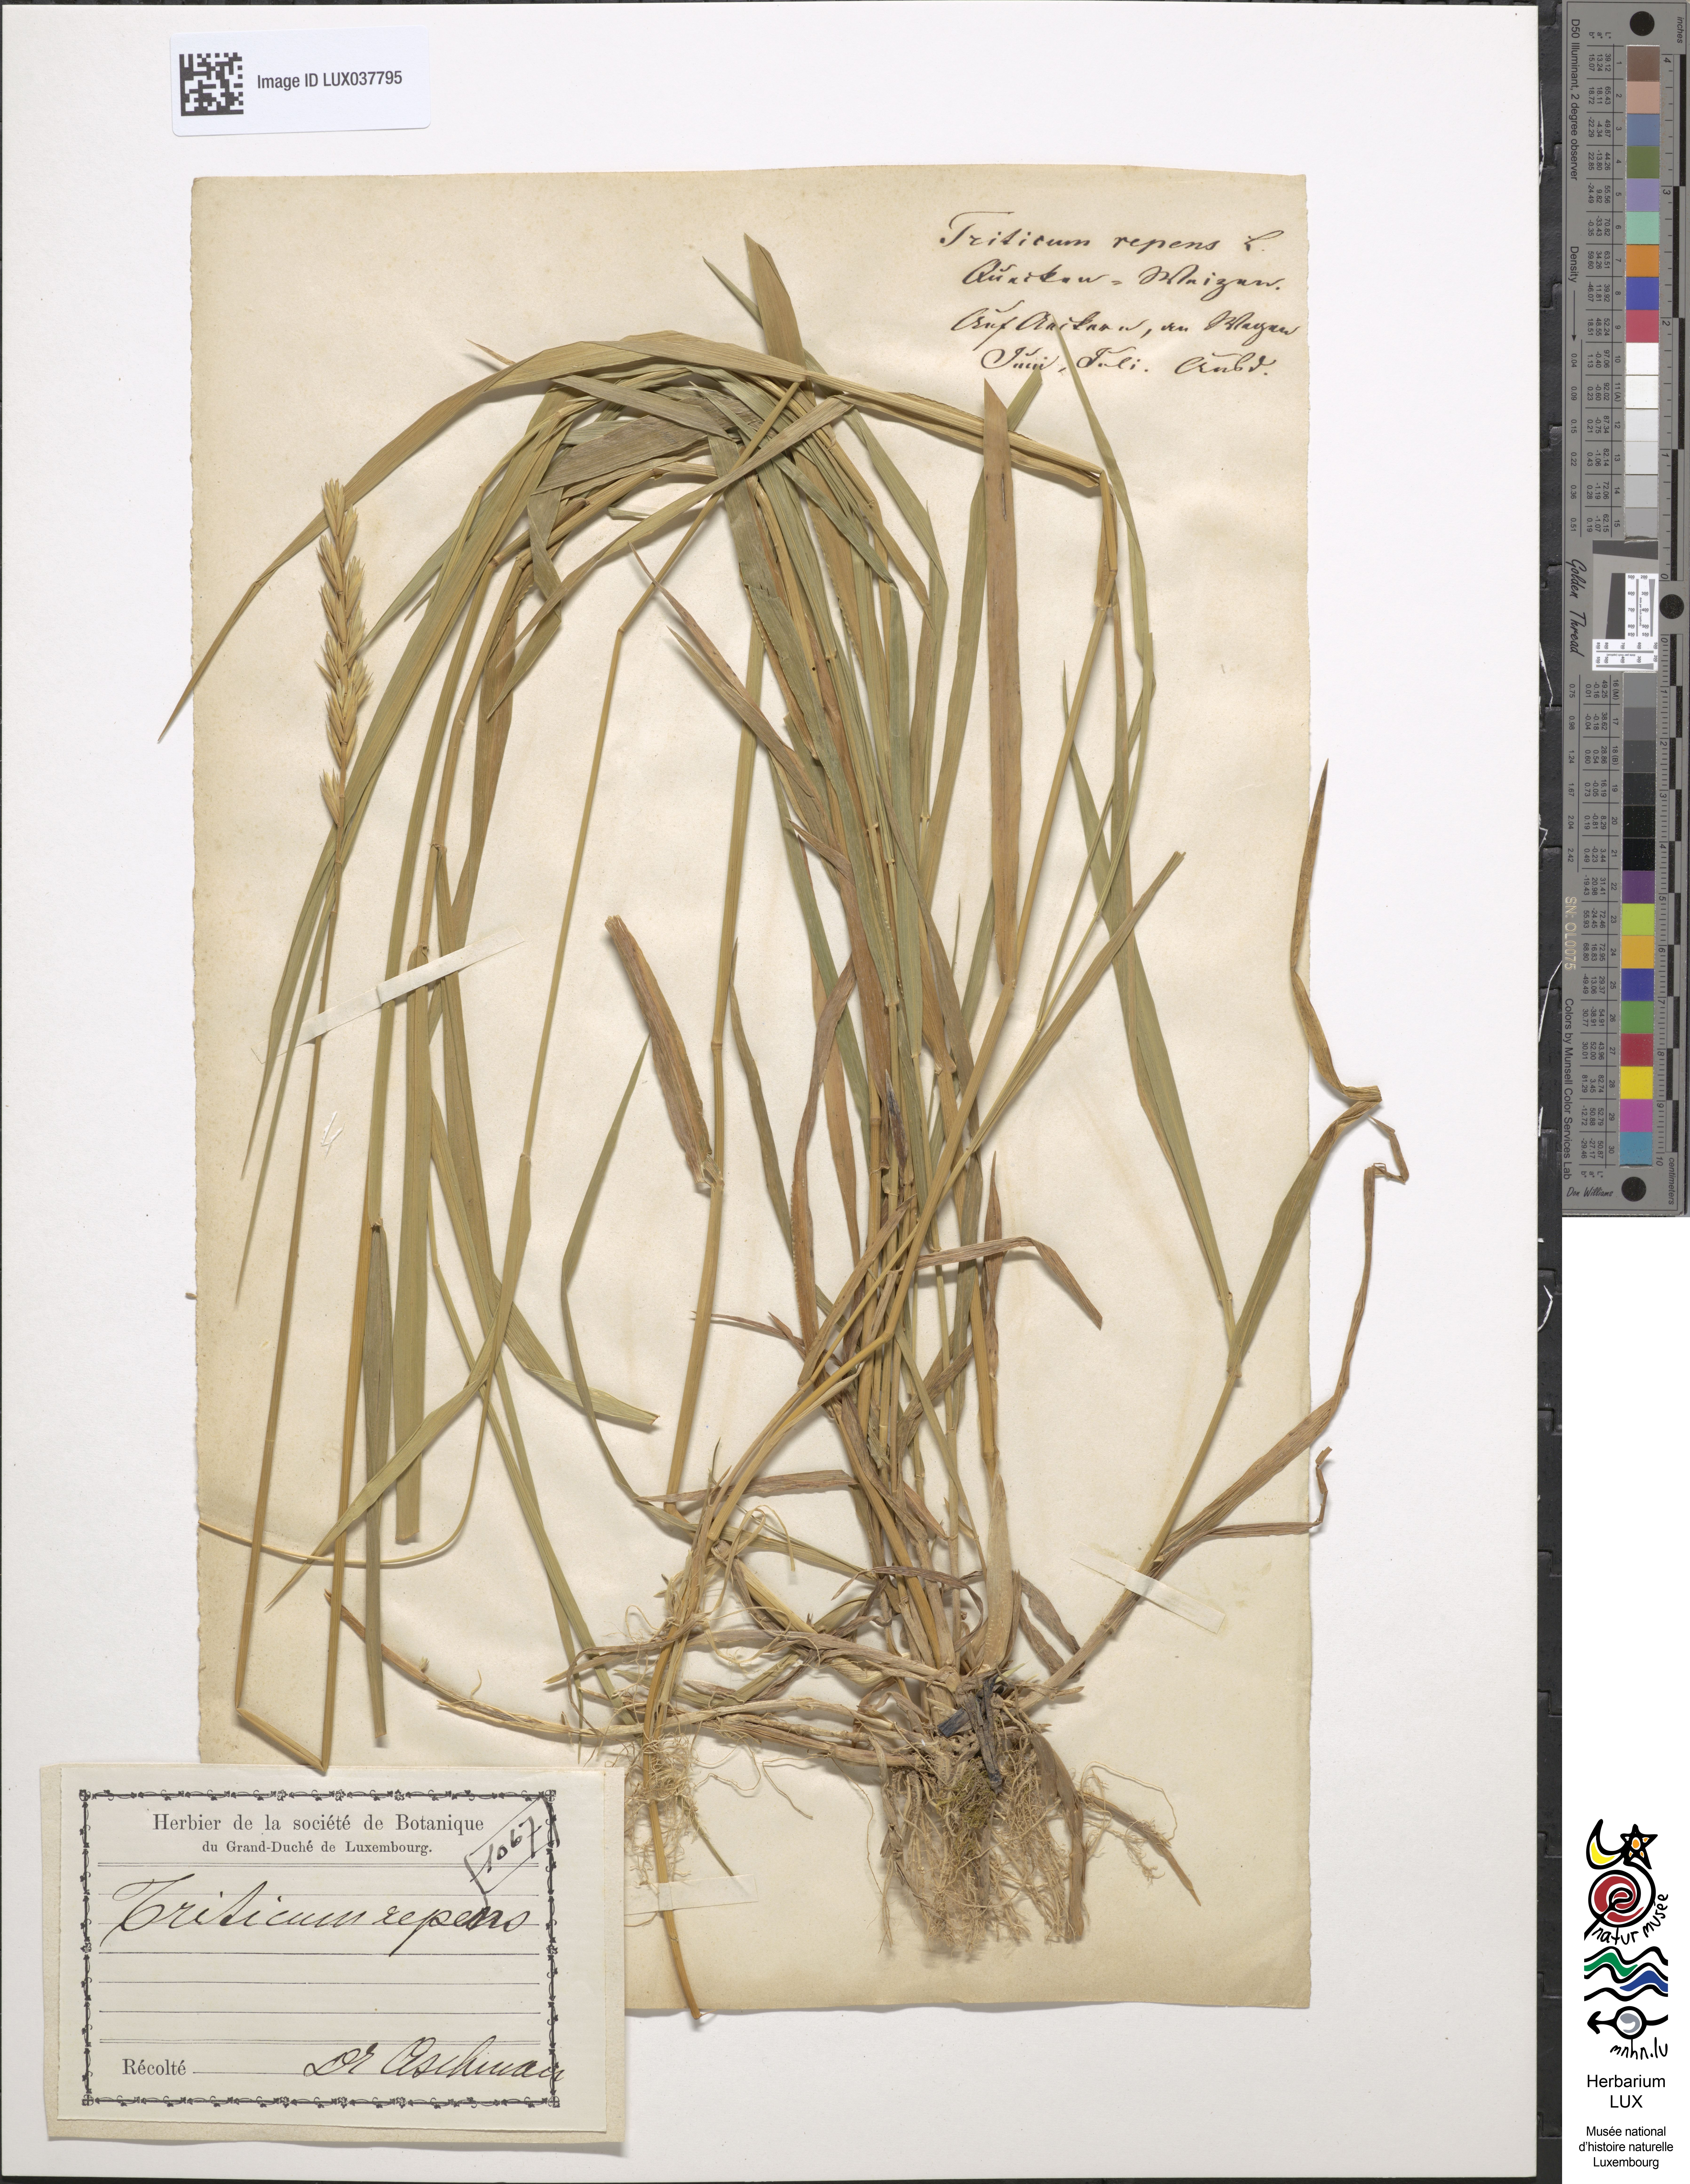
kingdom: Plantae
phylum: Tracheophyta
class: Liliopsida
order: Poales
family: Poaceae
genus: Elymus
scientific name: Elymus repens
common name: Quackgrass
